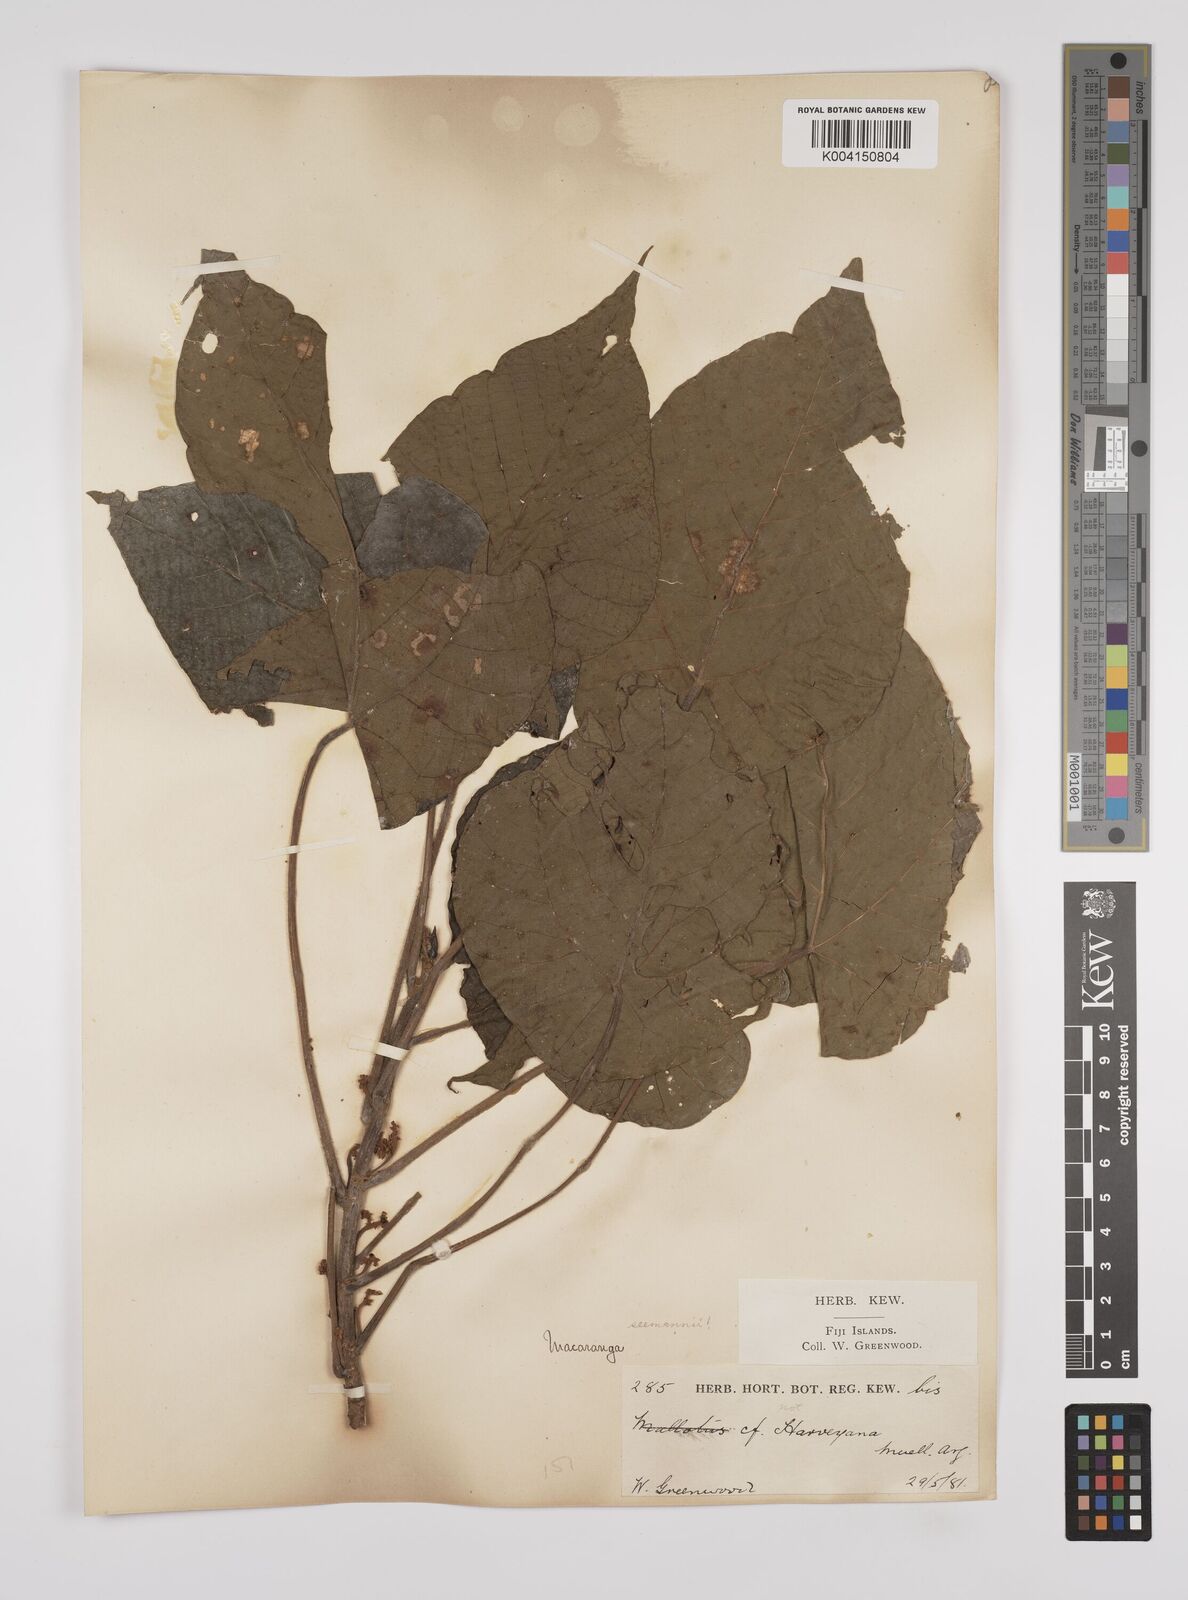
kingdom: Plantae
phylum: Tracheophyta
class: Magnoliopsida
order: Malpighiales
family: Euphorbiaceae
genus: Macaranga
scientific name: Macaranga seemannii
